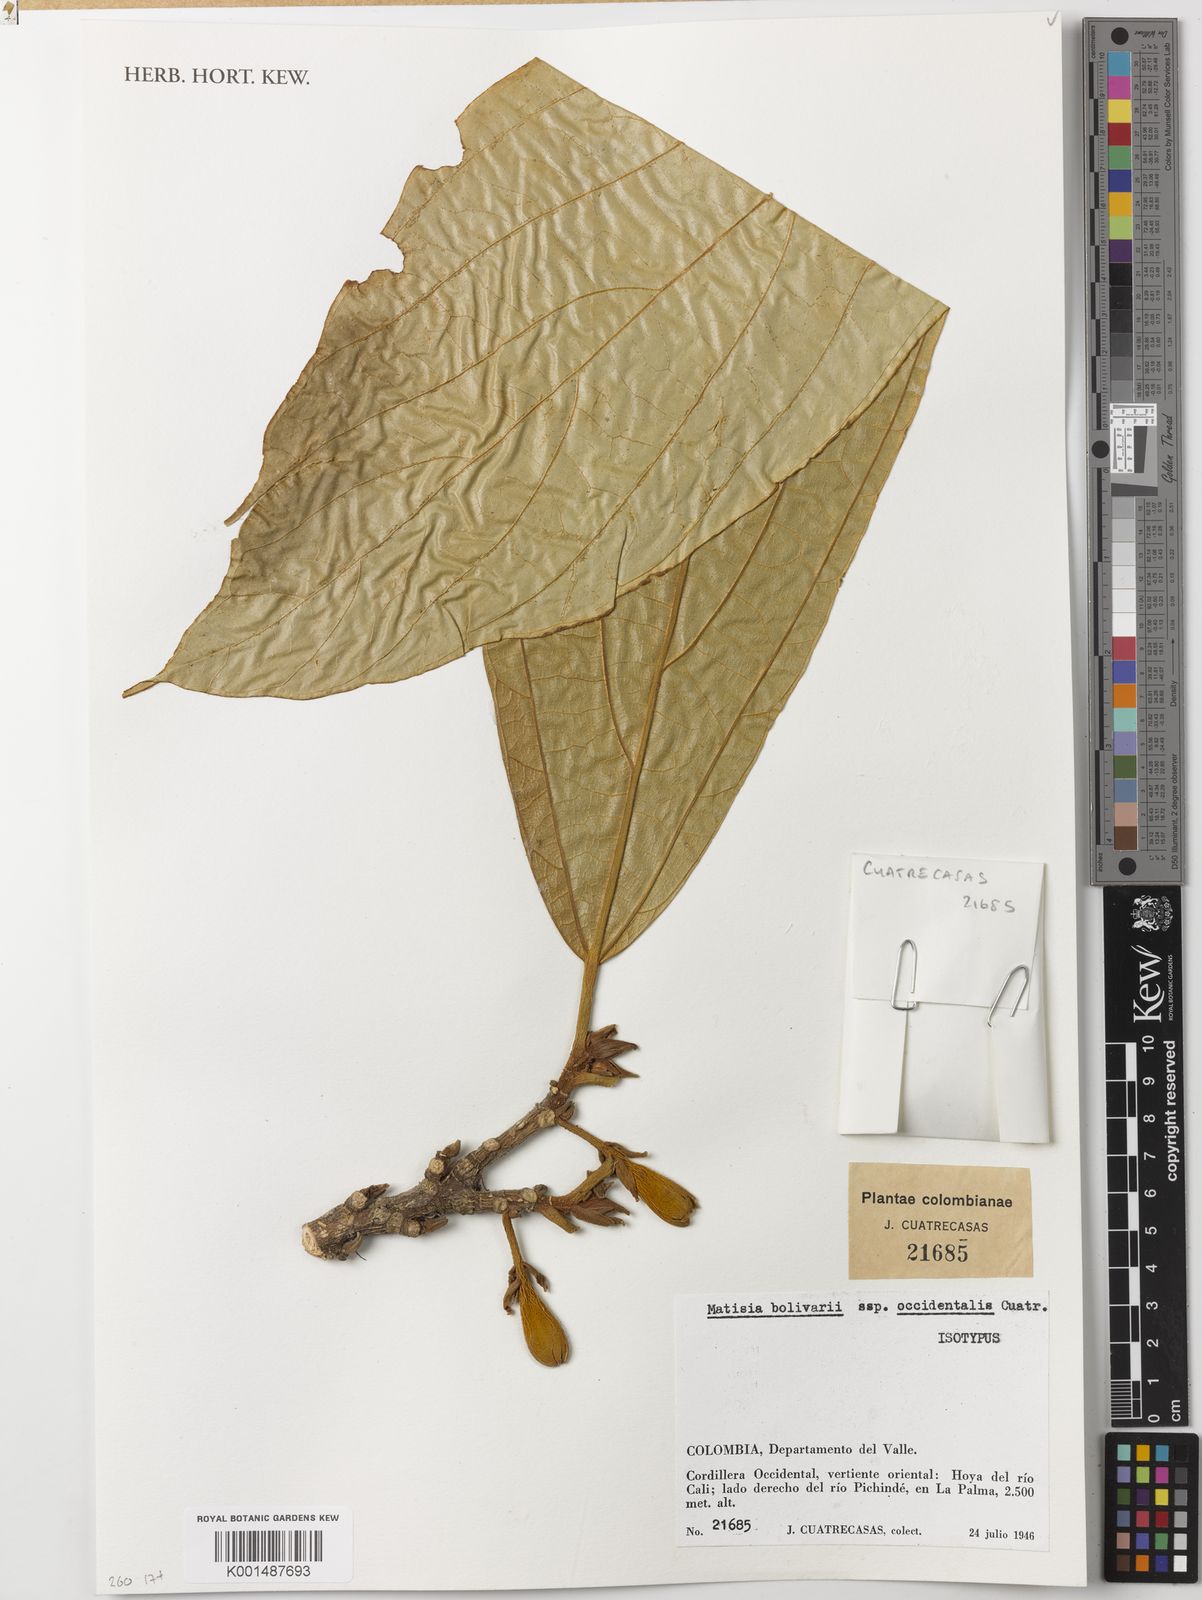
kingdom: Plantae
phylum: Tracheophyta
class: Magnoliopsida
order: Malvales
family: Malvaceae
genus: Matisia
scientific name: Matisia bolivarii
